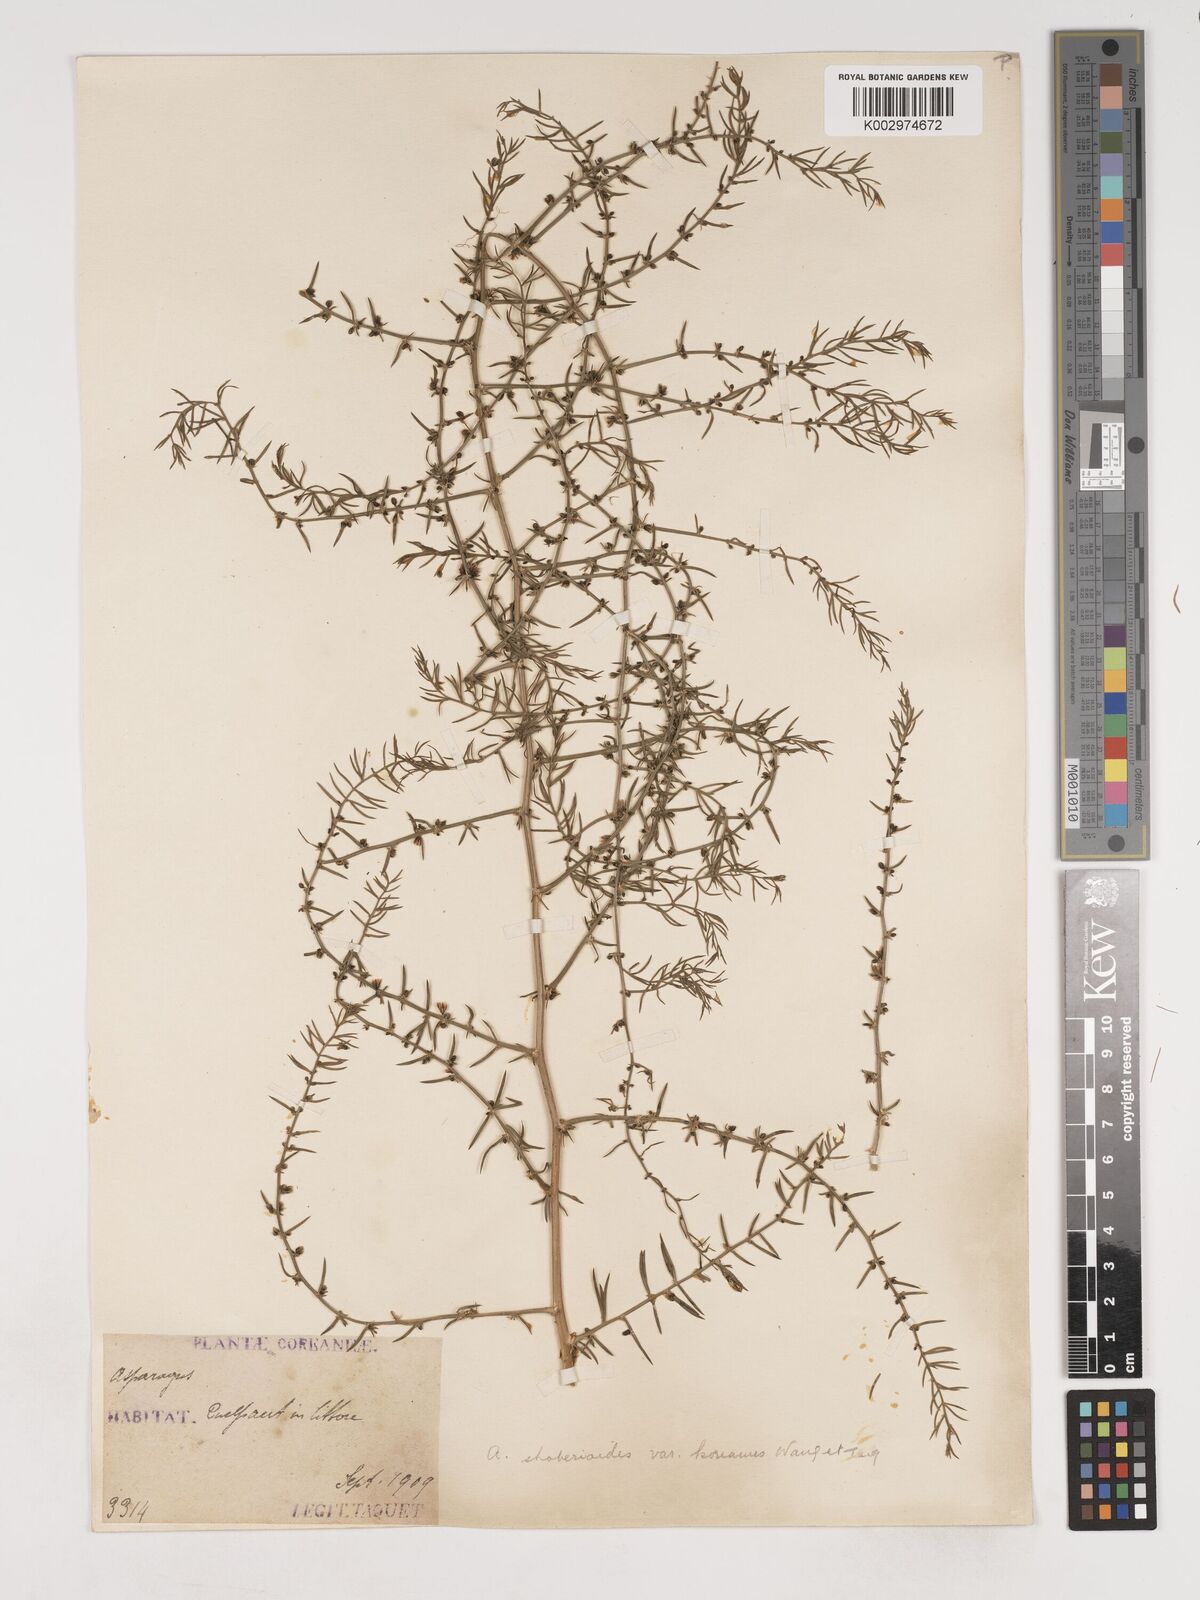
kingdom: Plantae
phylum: Tracheophyta
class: Liliopsida
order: Asparagales
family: Asparagaceae
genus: Asparagus
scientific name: Asparagus schoberioides
